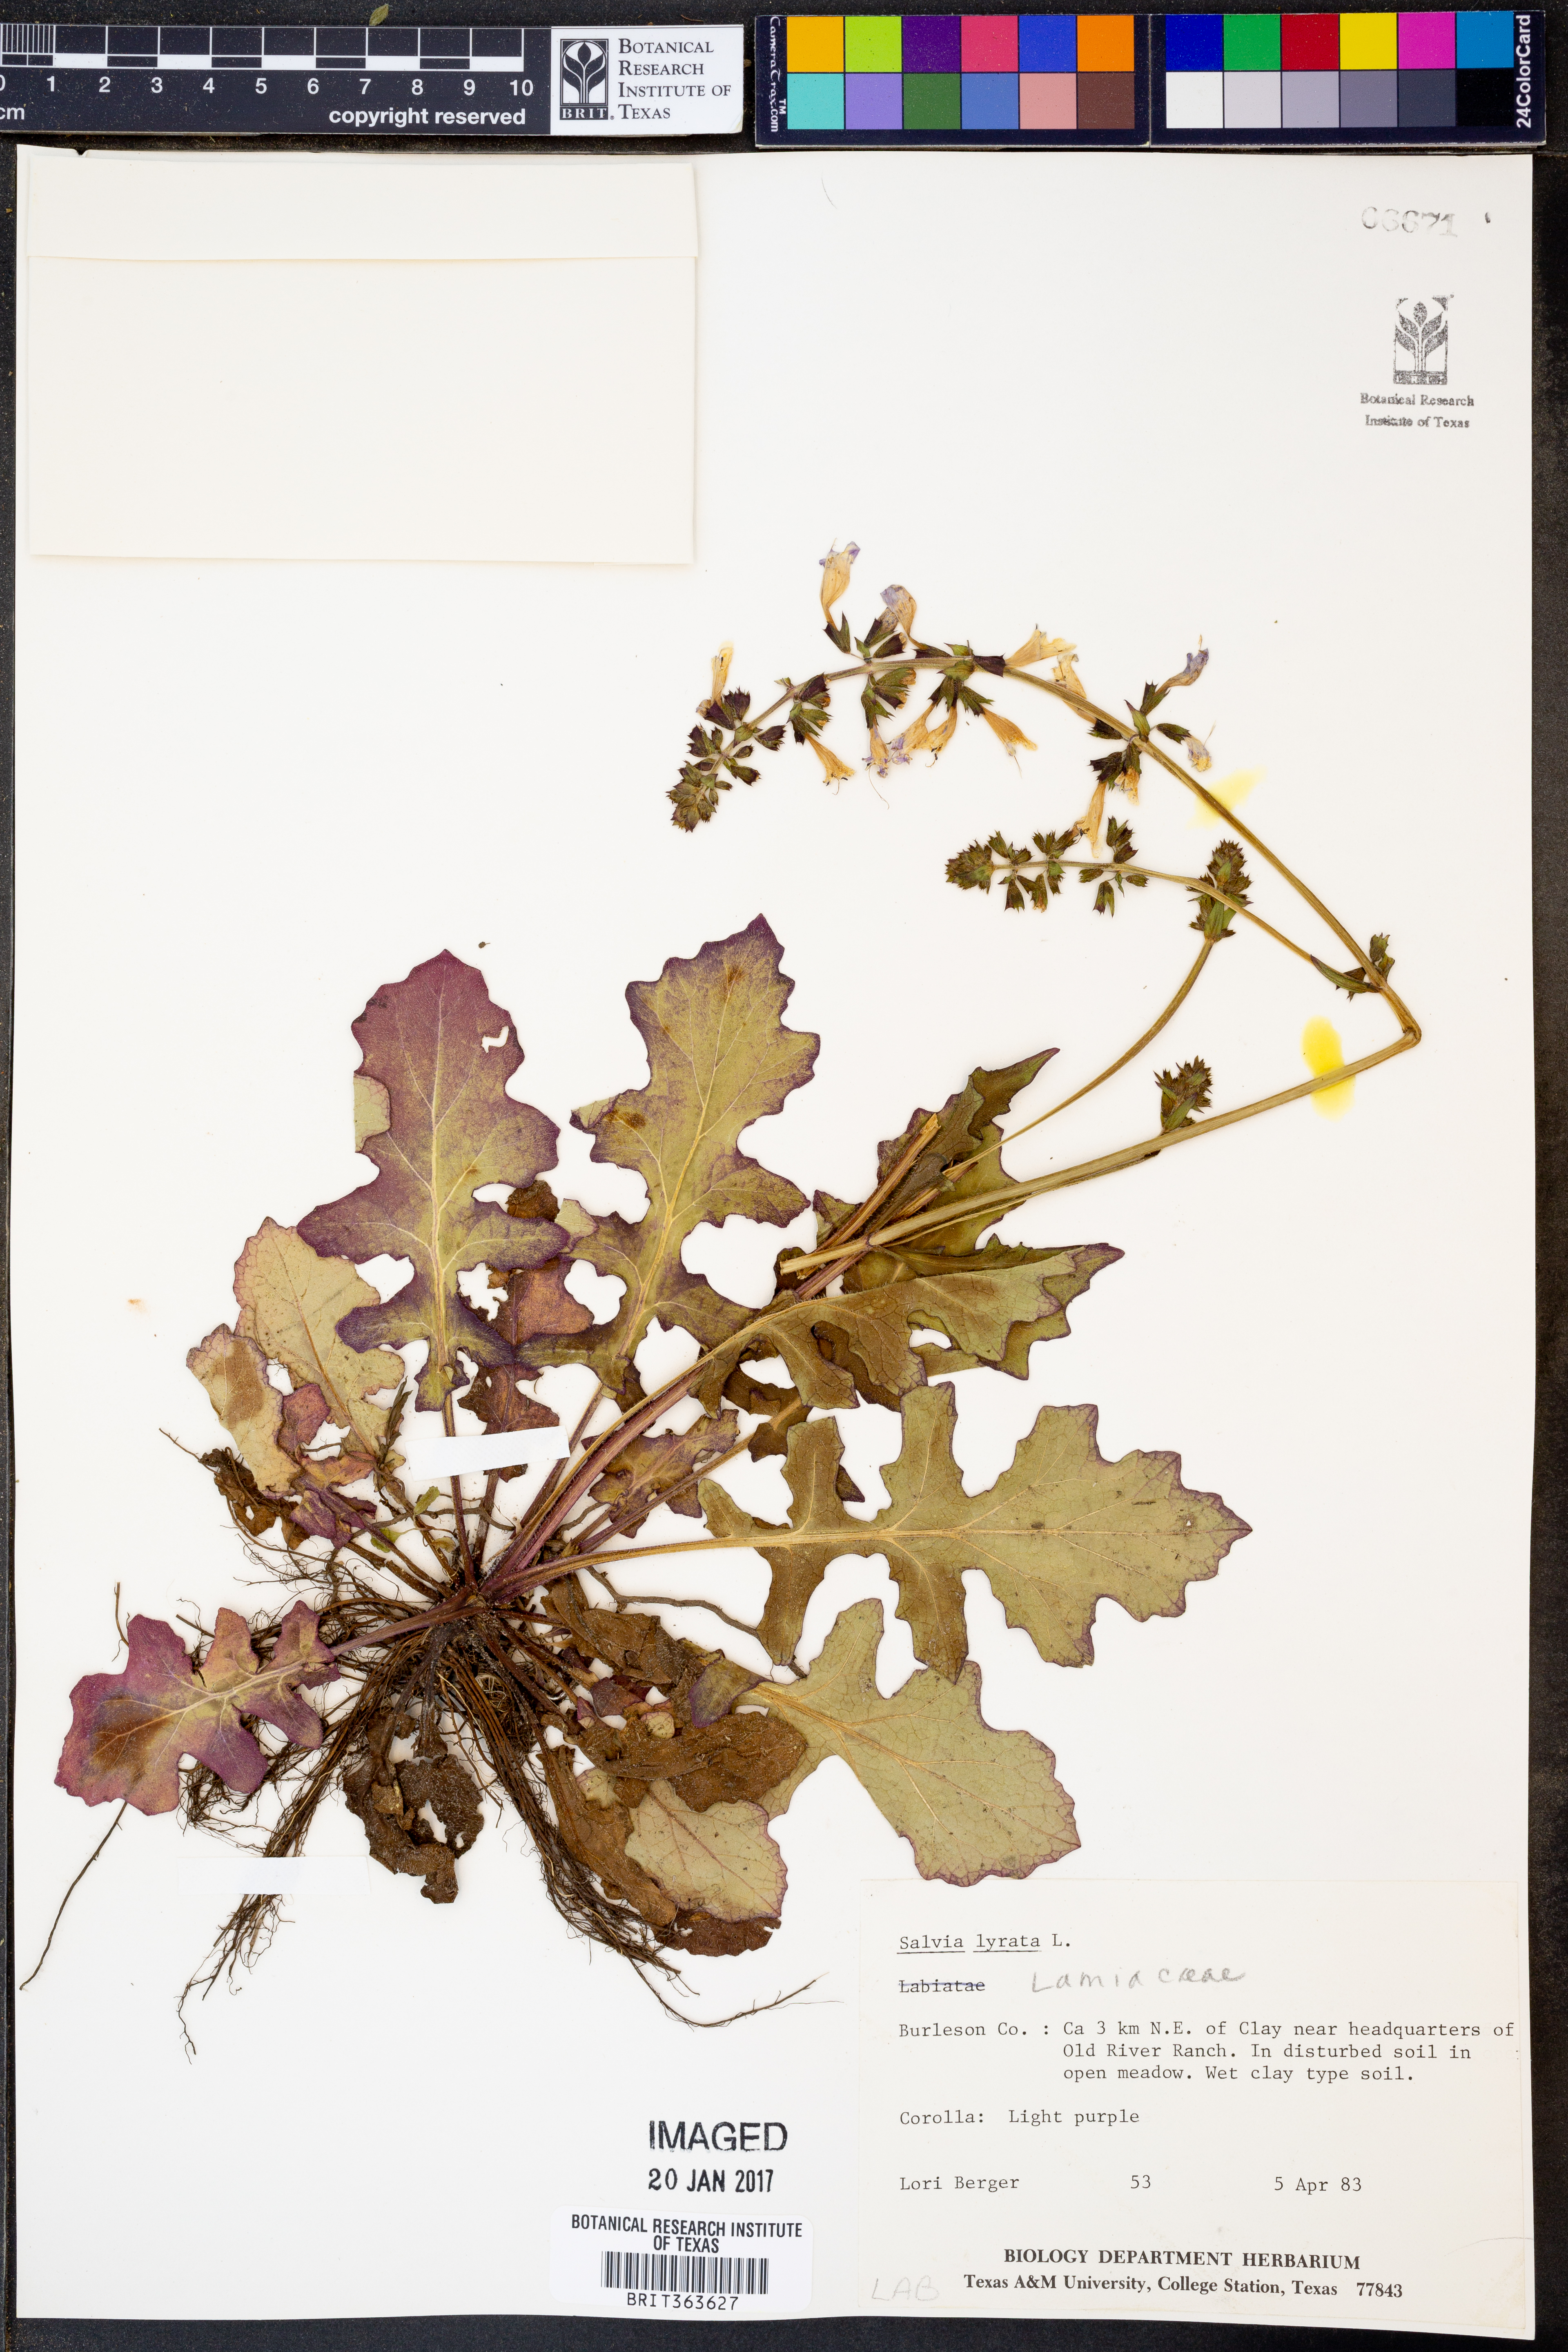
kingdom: Plantae
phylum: Tracheophyta
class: Magnoliopsida
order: Lamiales
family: Lamiaceae
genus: Salvia
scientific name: Salvia lyrata
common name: Cancerweed
